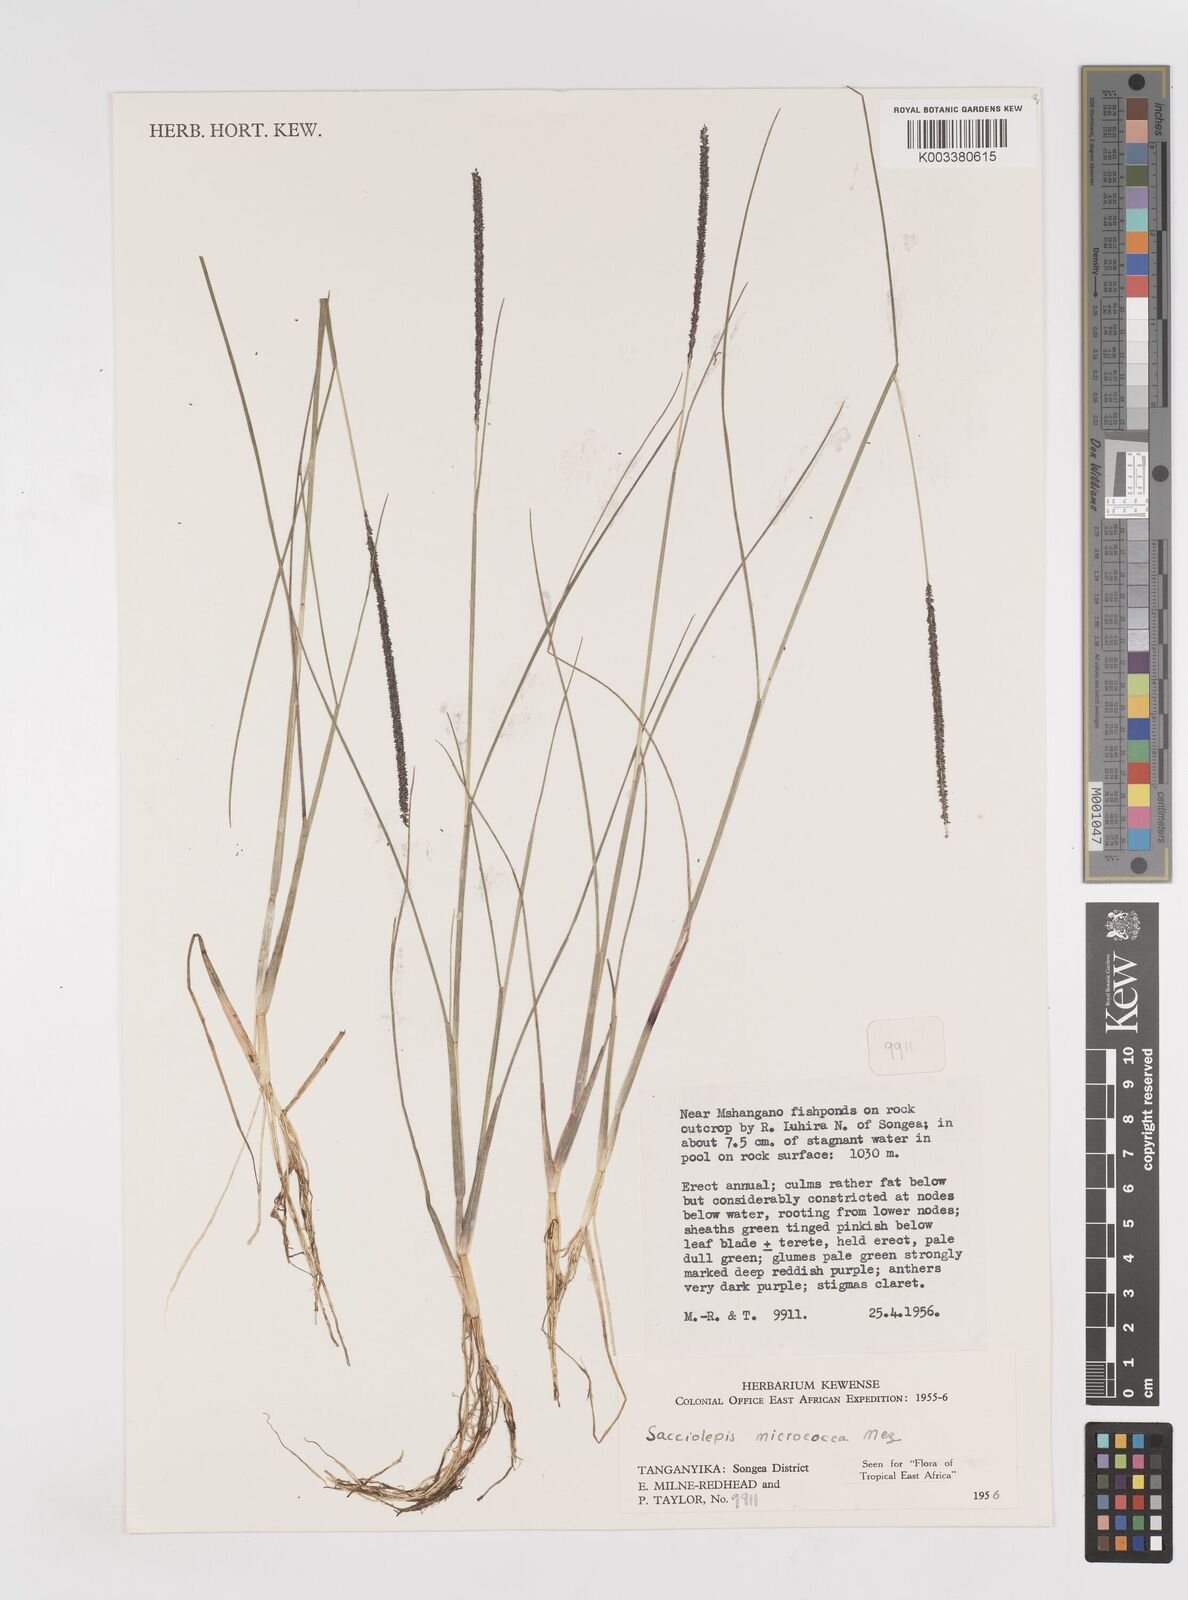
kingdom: Plantae
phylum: Tracheophyta
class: Liliopsida
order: Poales
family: Poaceae
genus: Sacciolepis
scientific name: Sacciolepis micrococca
